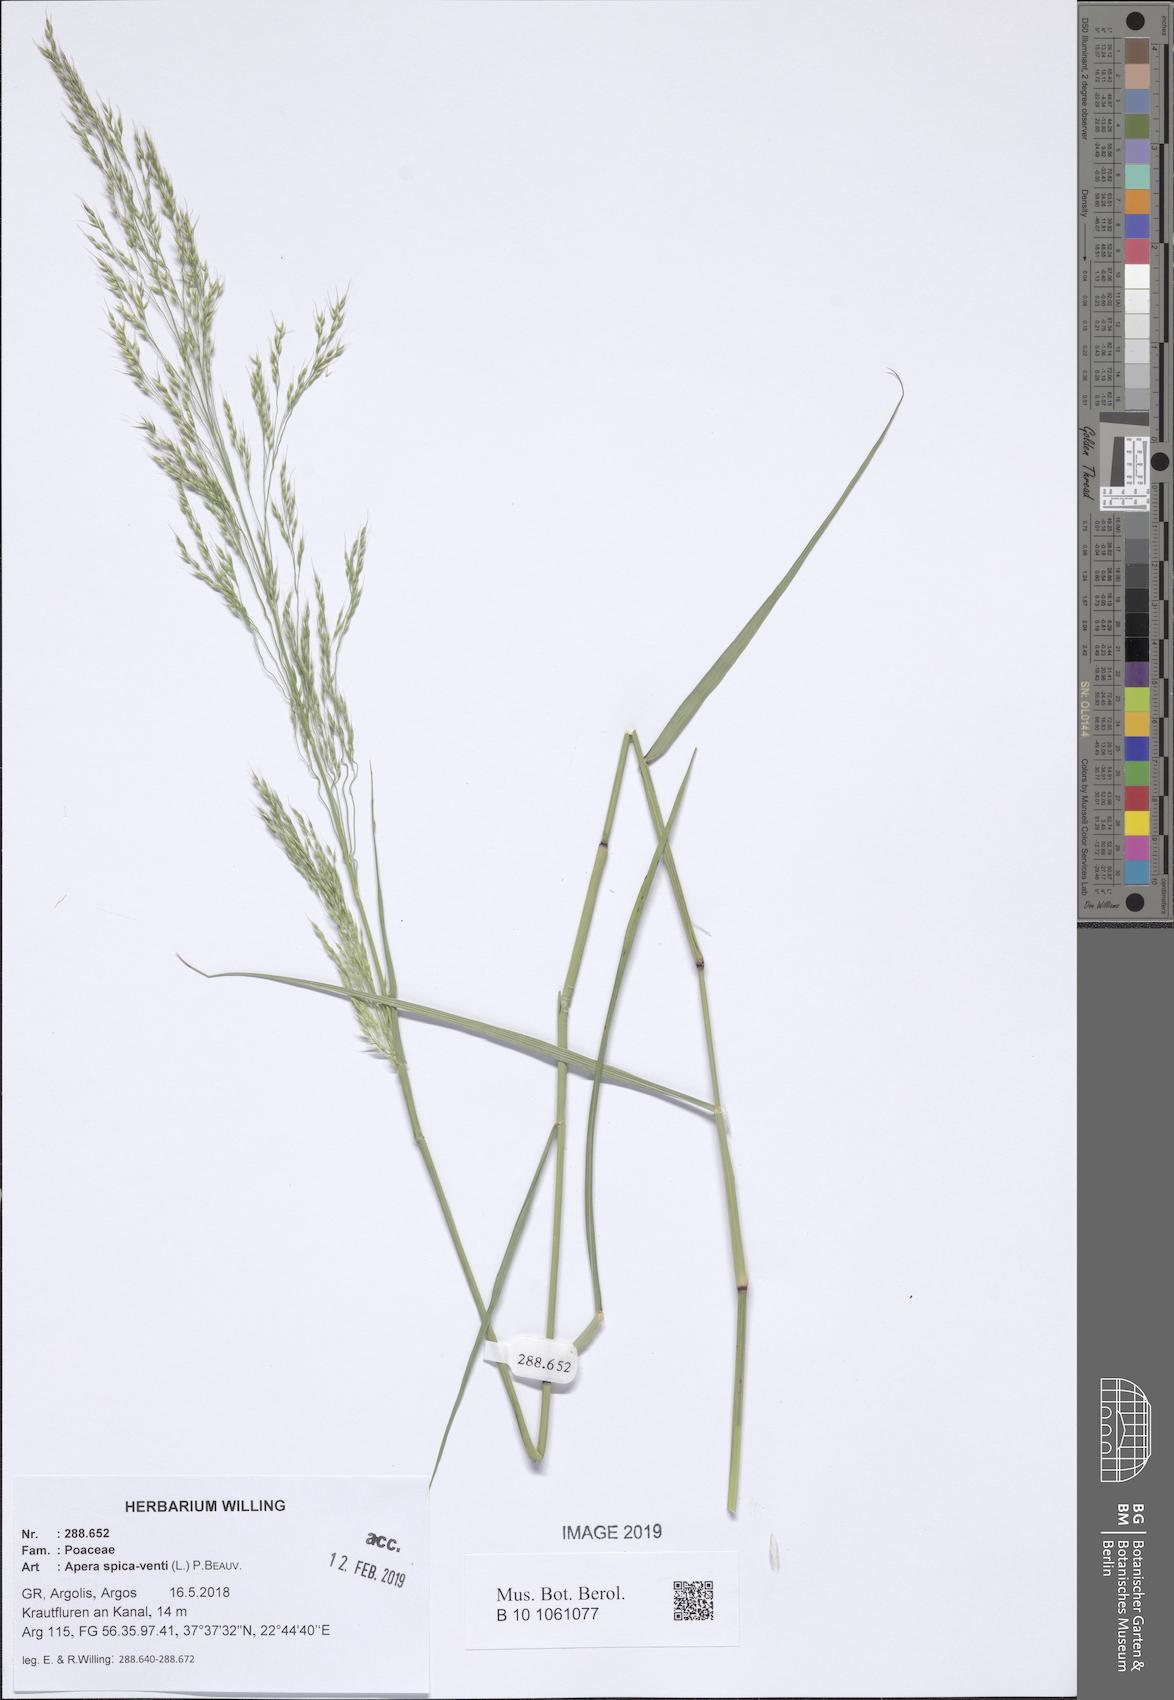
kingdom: Plantae
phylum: Tracheophyta
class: Liliopsida
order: Poales
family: Poaceae
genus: Apera
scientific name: Apera spica-venti
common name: Loose silky-bent
